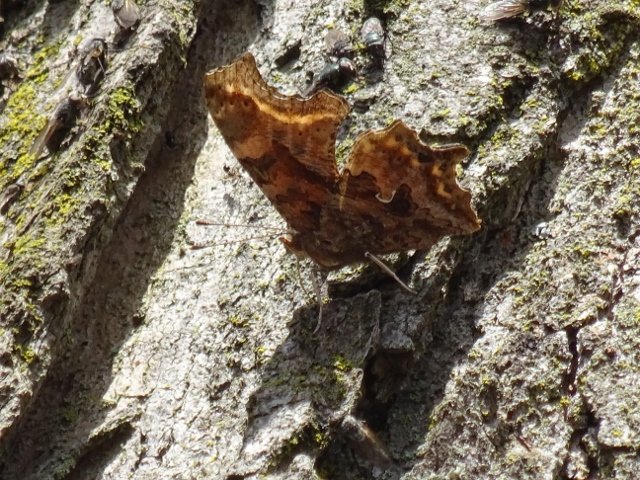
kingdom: Animalia
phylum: Arthropoda
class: Insecta
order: Lepidoptera
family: Nymphalidae
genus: Polygonia
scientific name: Polygonia comma
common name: Eastern Comma
